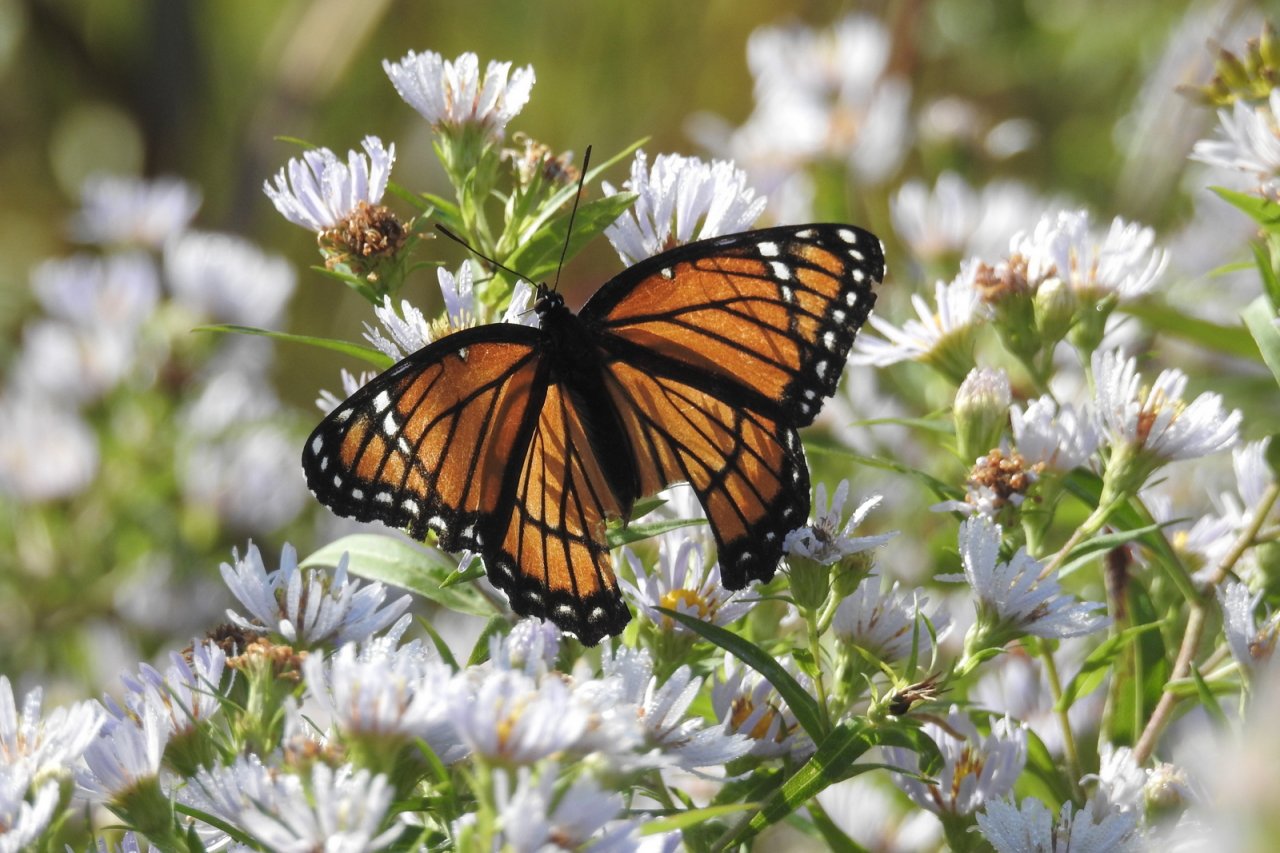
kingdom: Animalia
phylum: Arthropoda
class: Insecta
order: Lepidoptera
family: Nymphalidae
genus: Limenitis
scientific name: Limenitis archippus
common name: Viceroy
